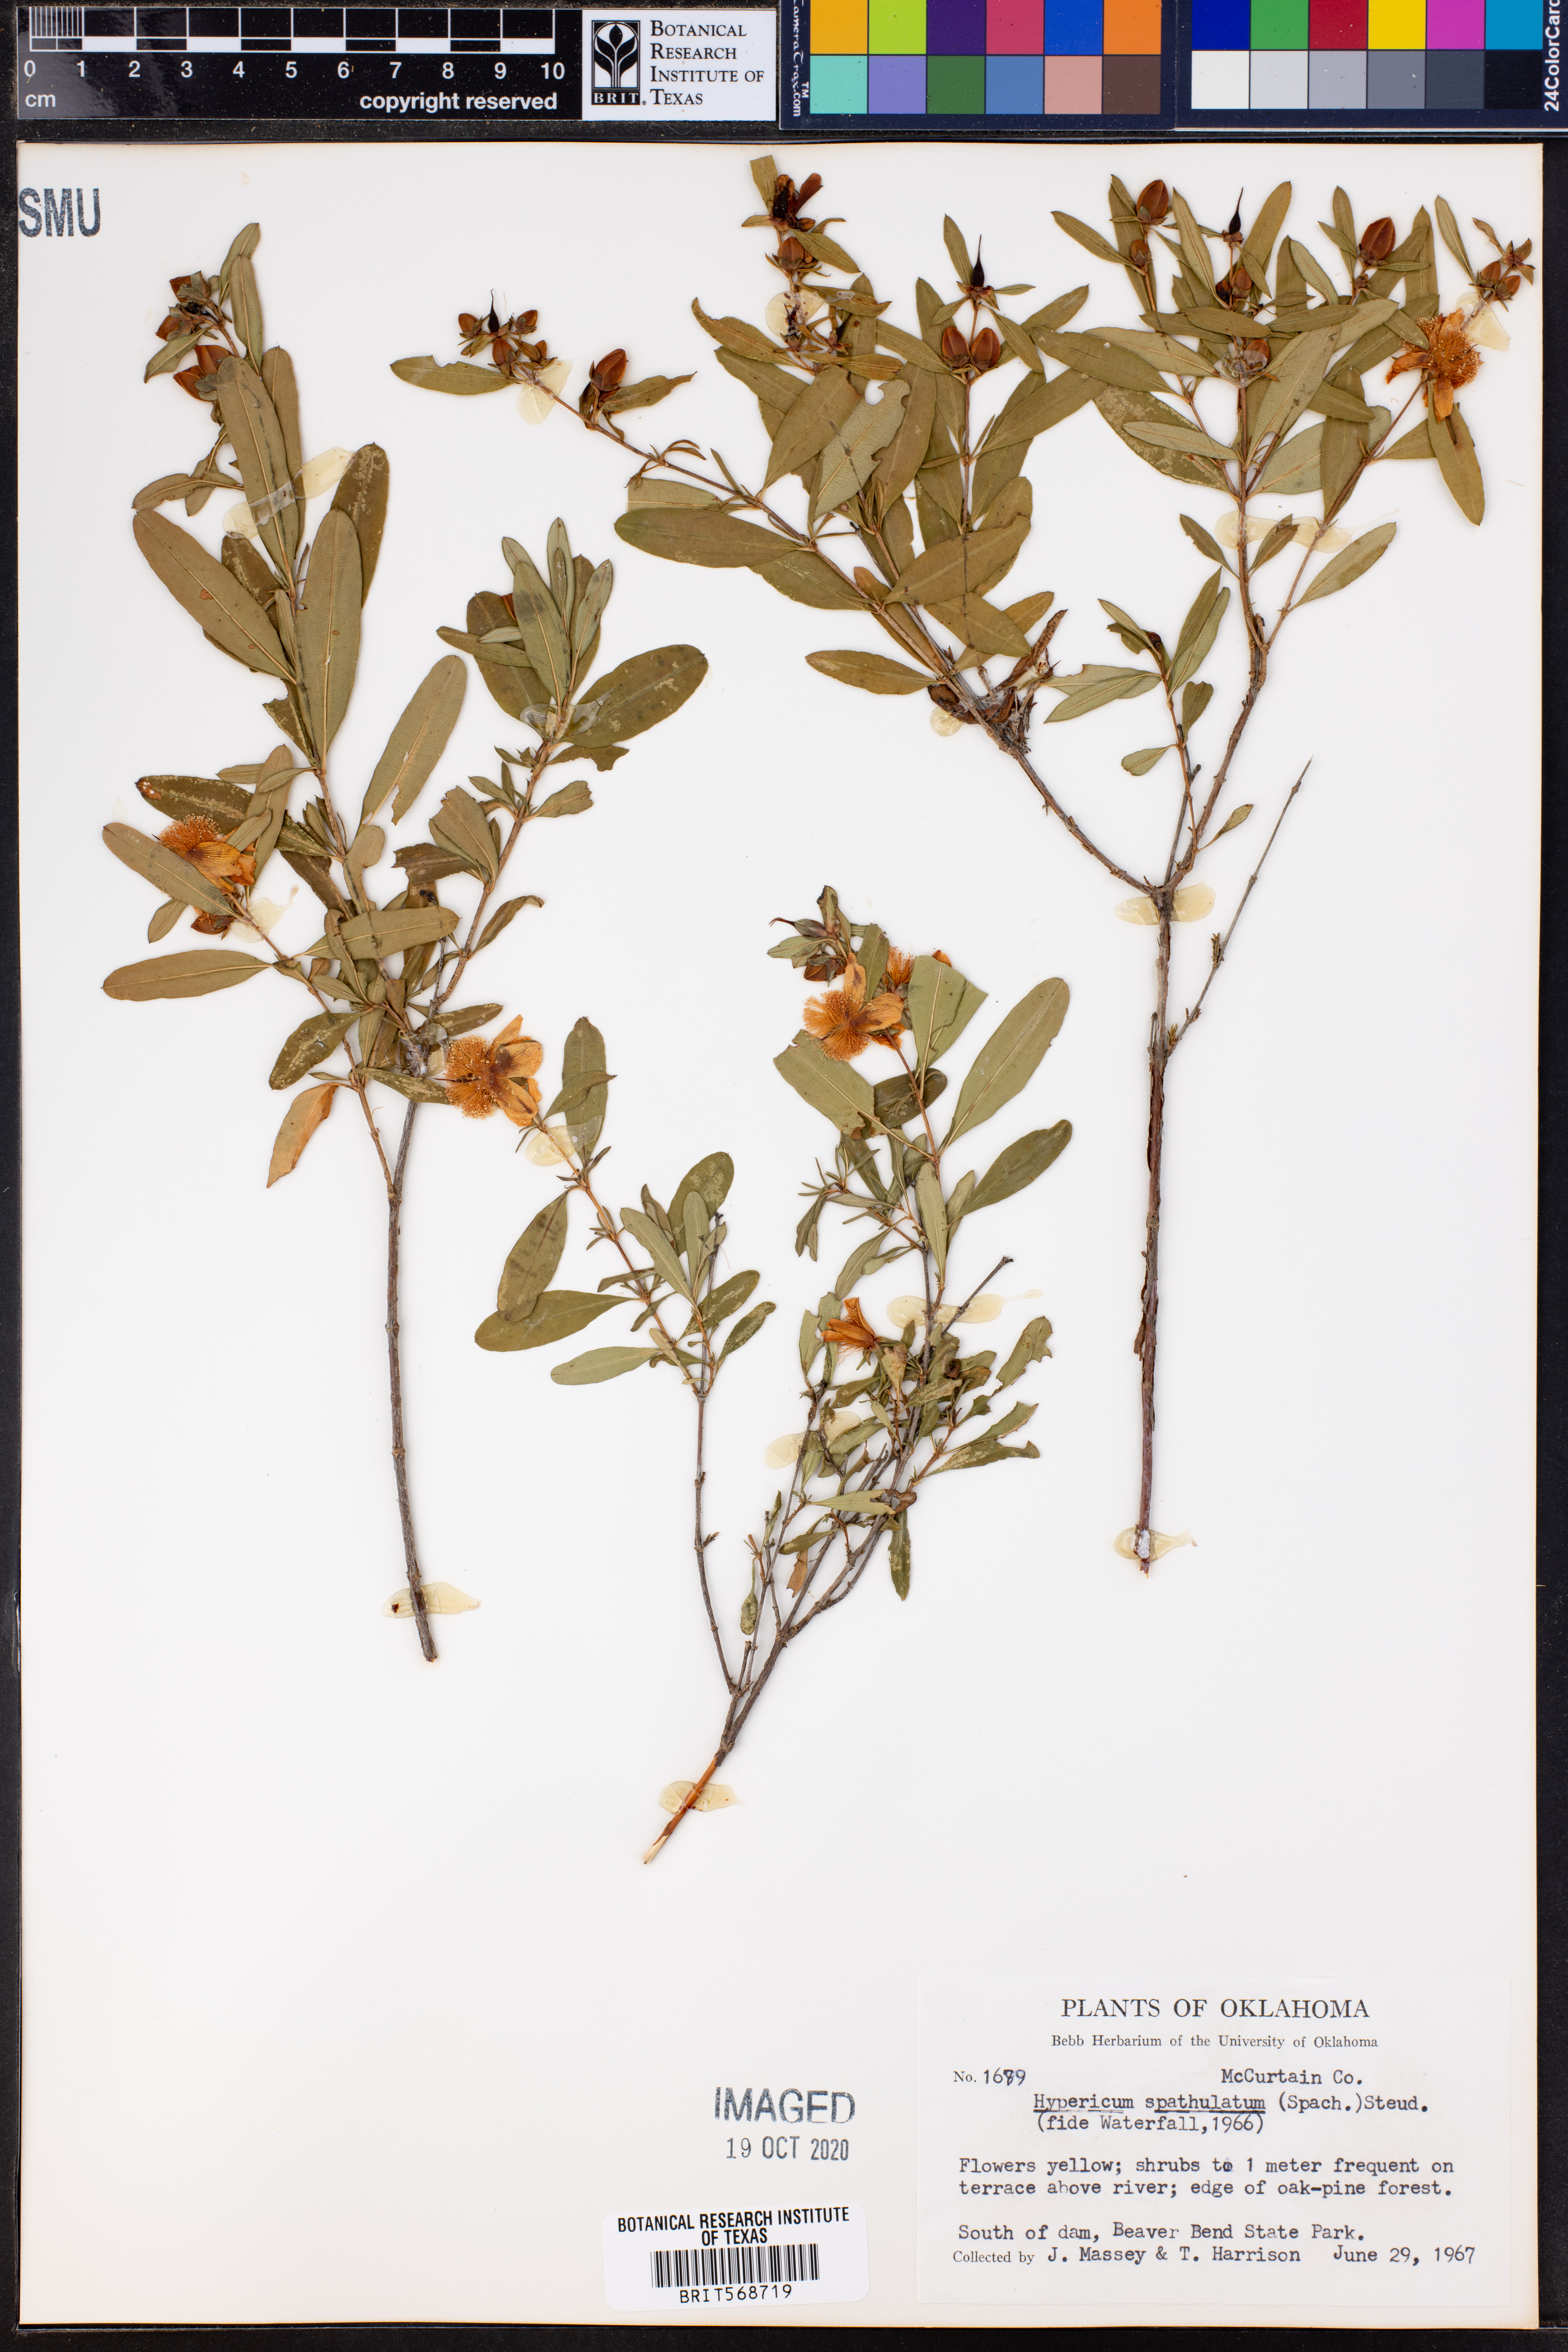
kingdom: Plantae
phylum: Tracheophyta
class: Magnoliopsida
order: Malpighiales
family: Hypericaceae
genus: Hypericum
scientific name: Hypericum
